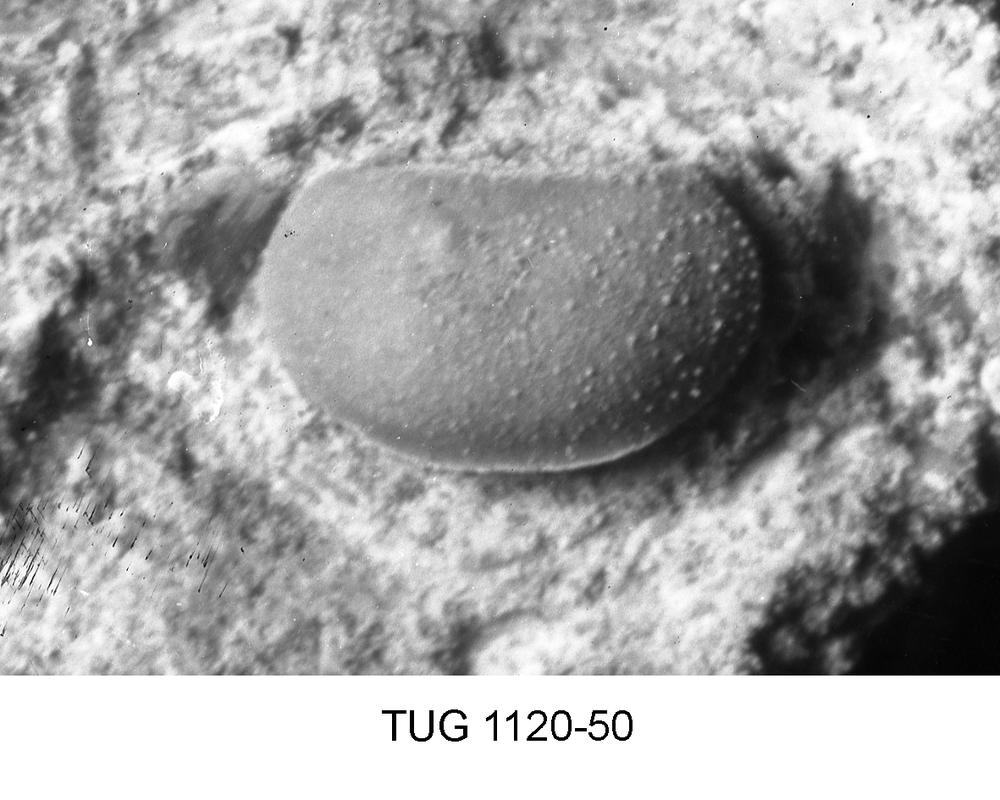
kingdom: Animalia
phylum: Arthropoda
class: Ostracoda
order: Platycopida
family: Primitiidae
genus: Primitiella
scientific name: Primitiella
